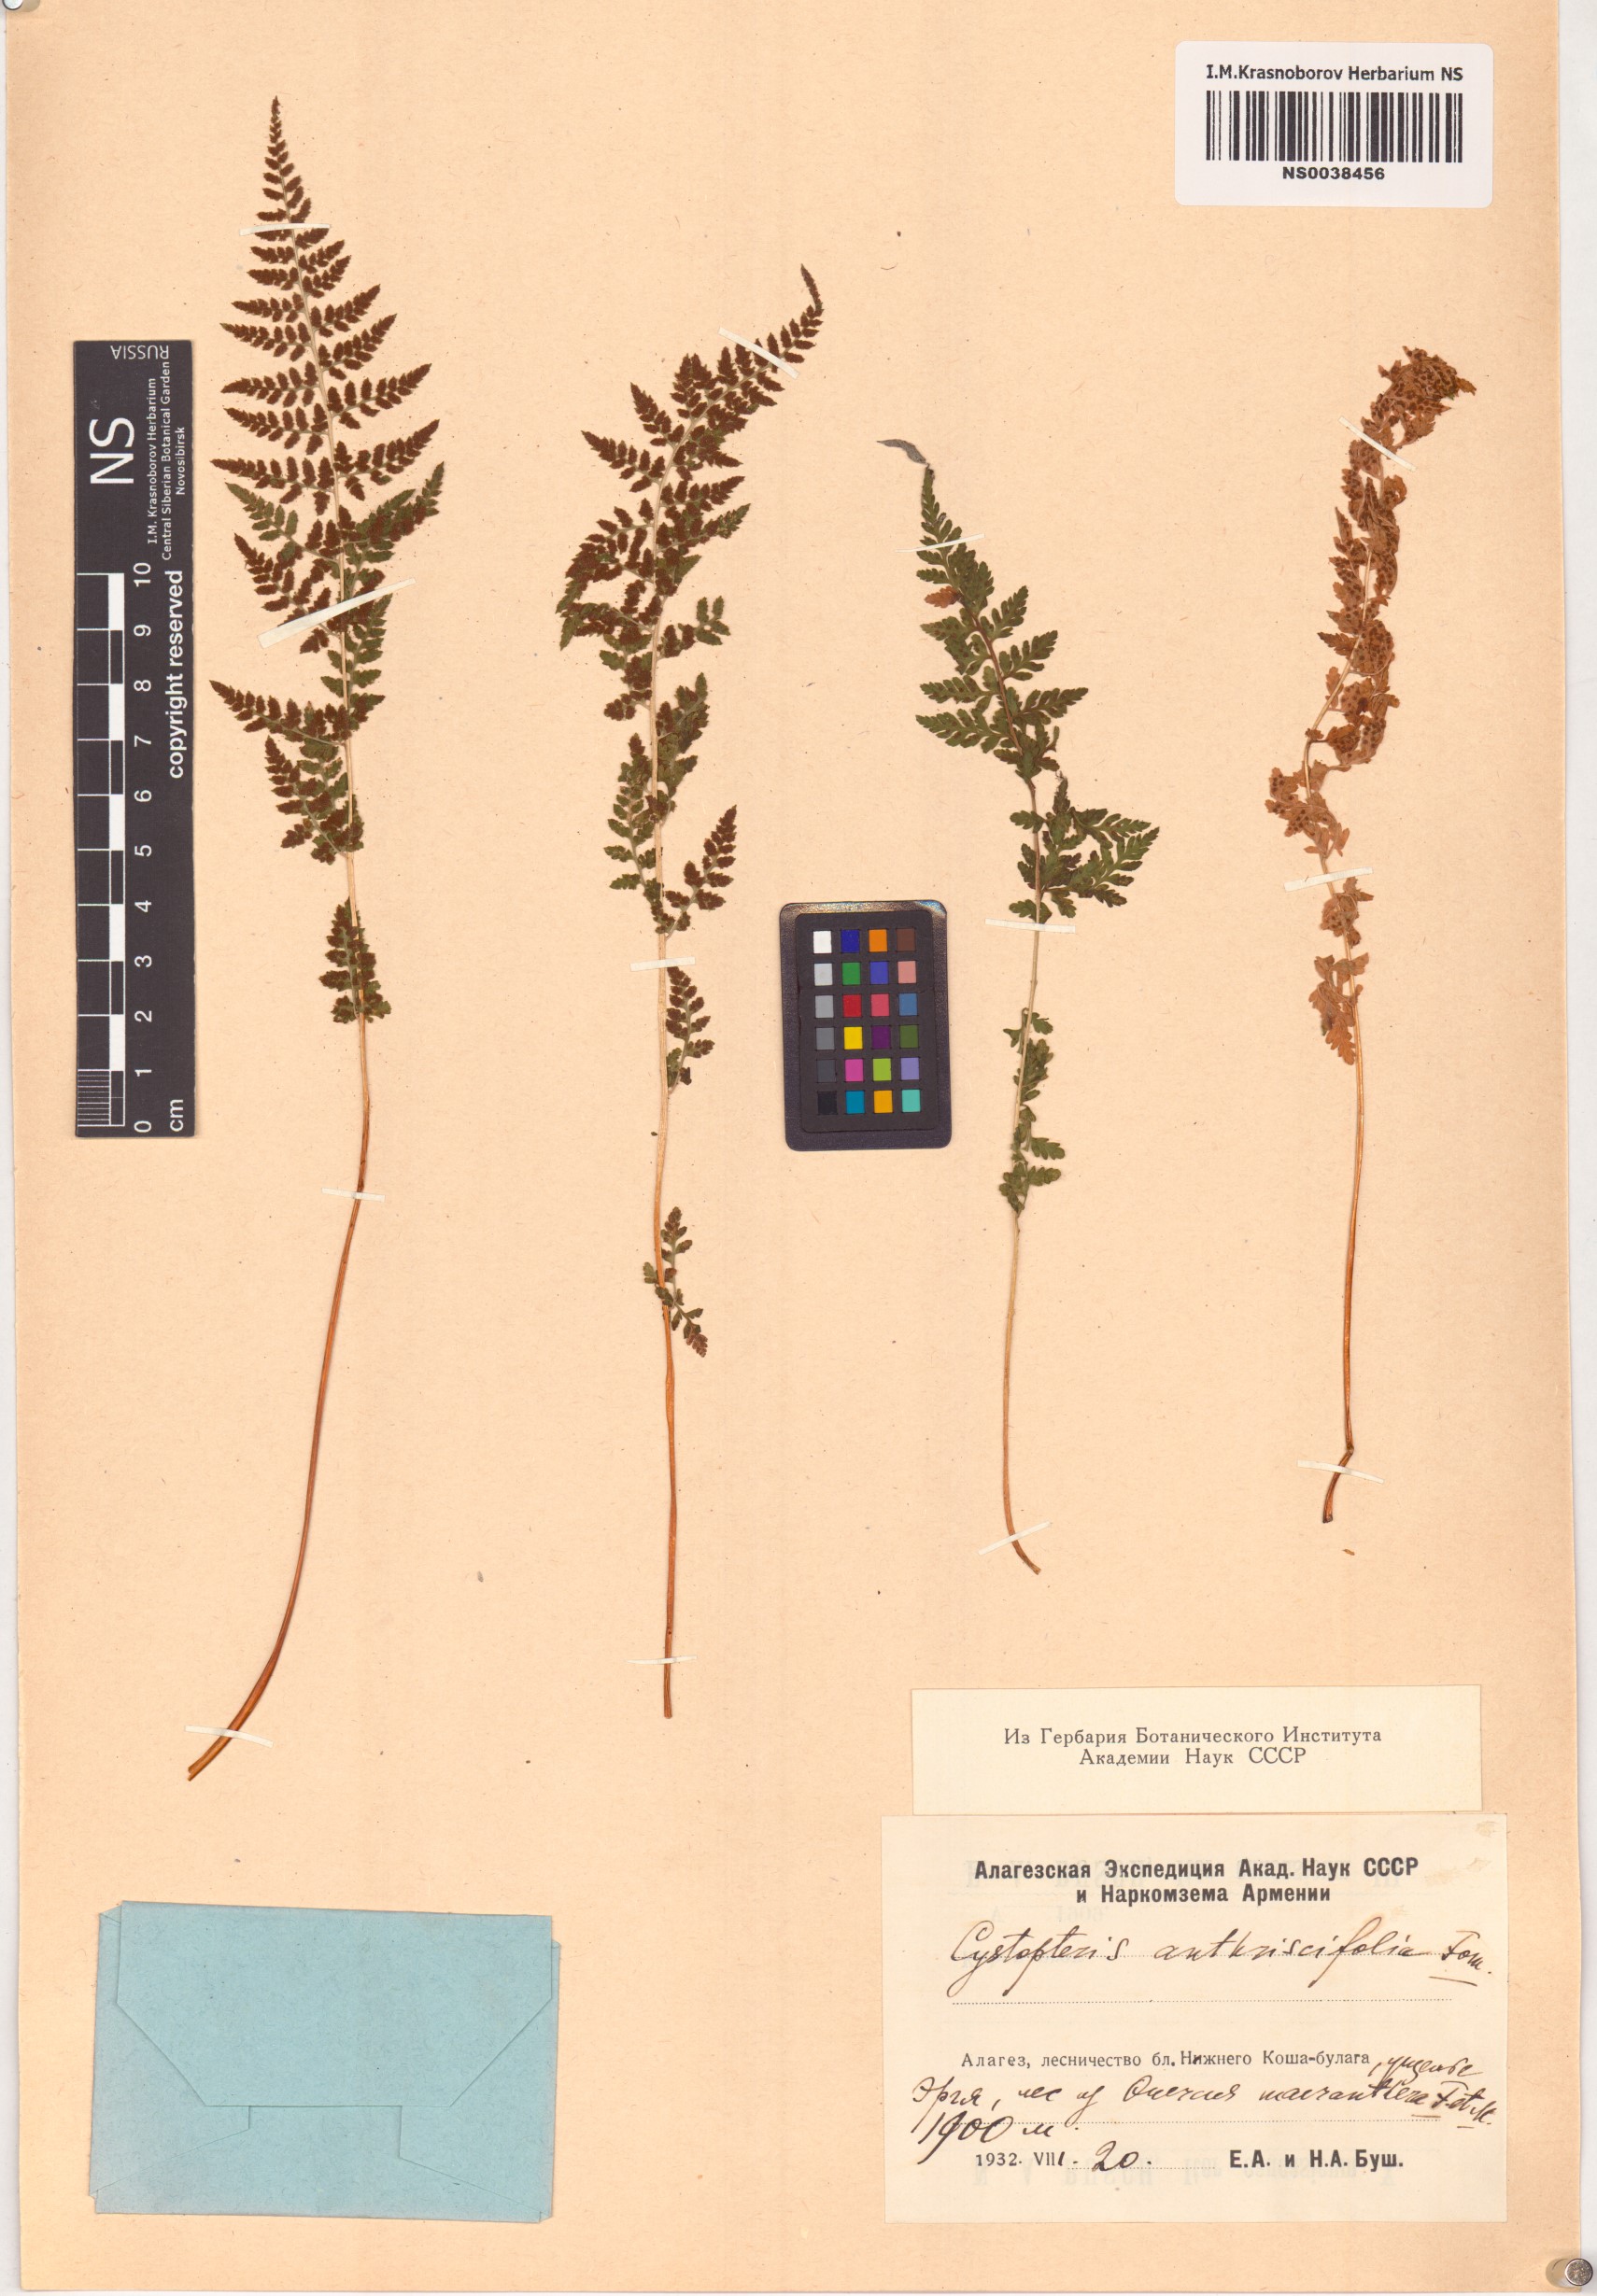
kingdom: Plantae
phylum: Tracheophyta
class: Polypodiopsida
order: Polypodiales
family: Cystopteridaceae
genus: Cystopteris
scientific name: Cystopteris fragilis
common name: Brittle bladder fern
